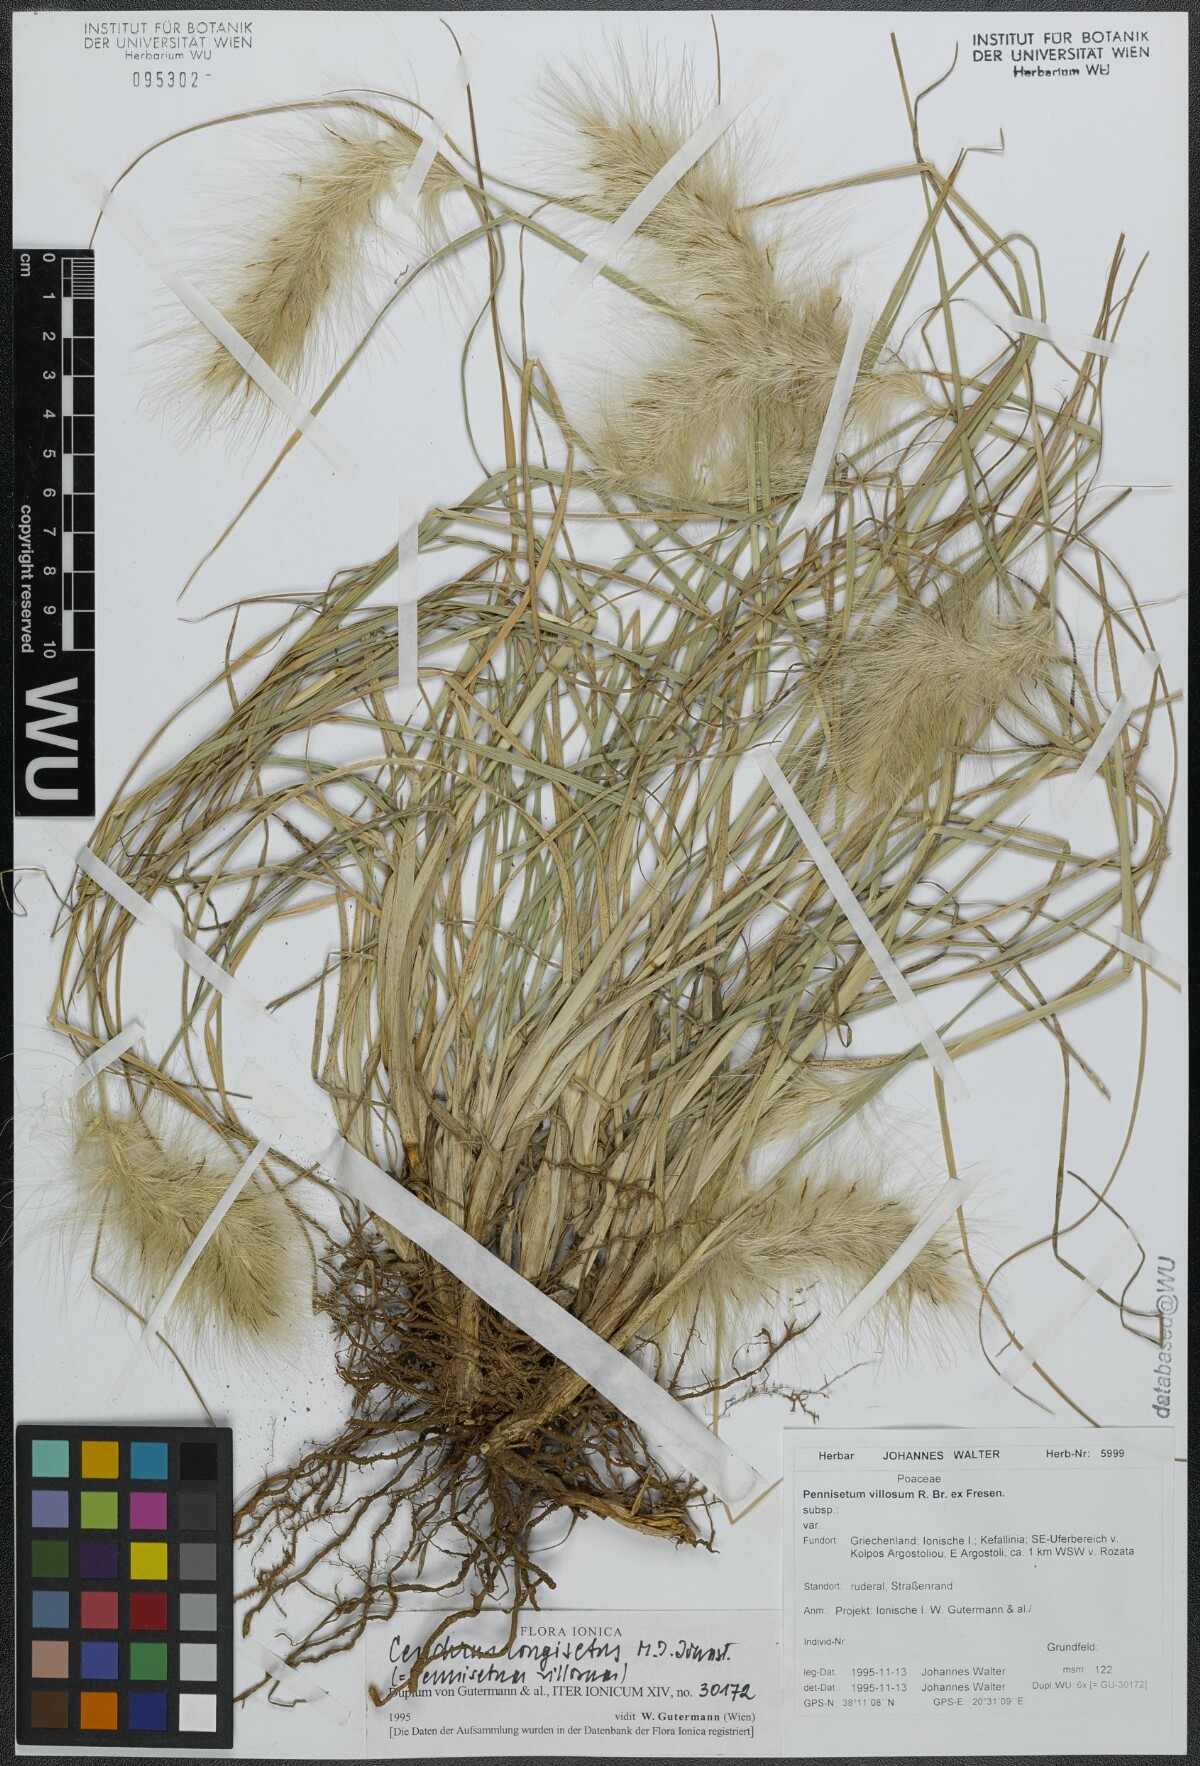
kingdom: Plantae
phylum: Tracheophyta
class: Liliopsida
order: Poales
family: Poaceae
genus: Cenchrus
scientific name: Cenchrus longisetus
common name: Feathertop
